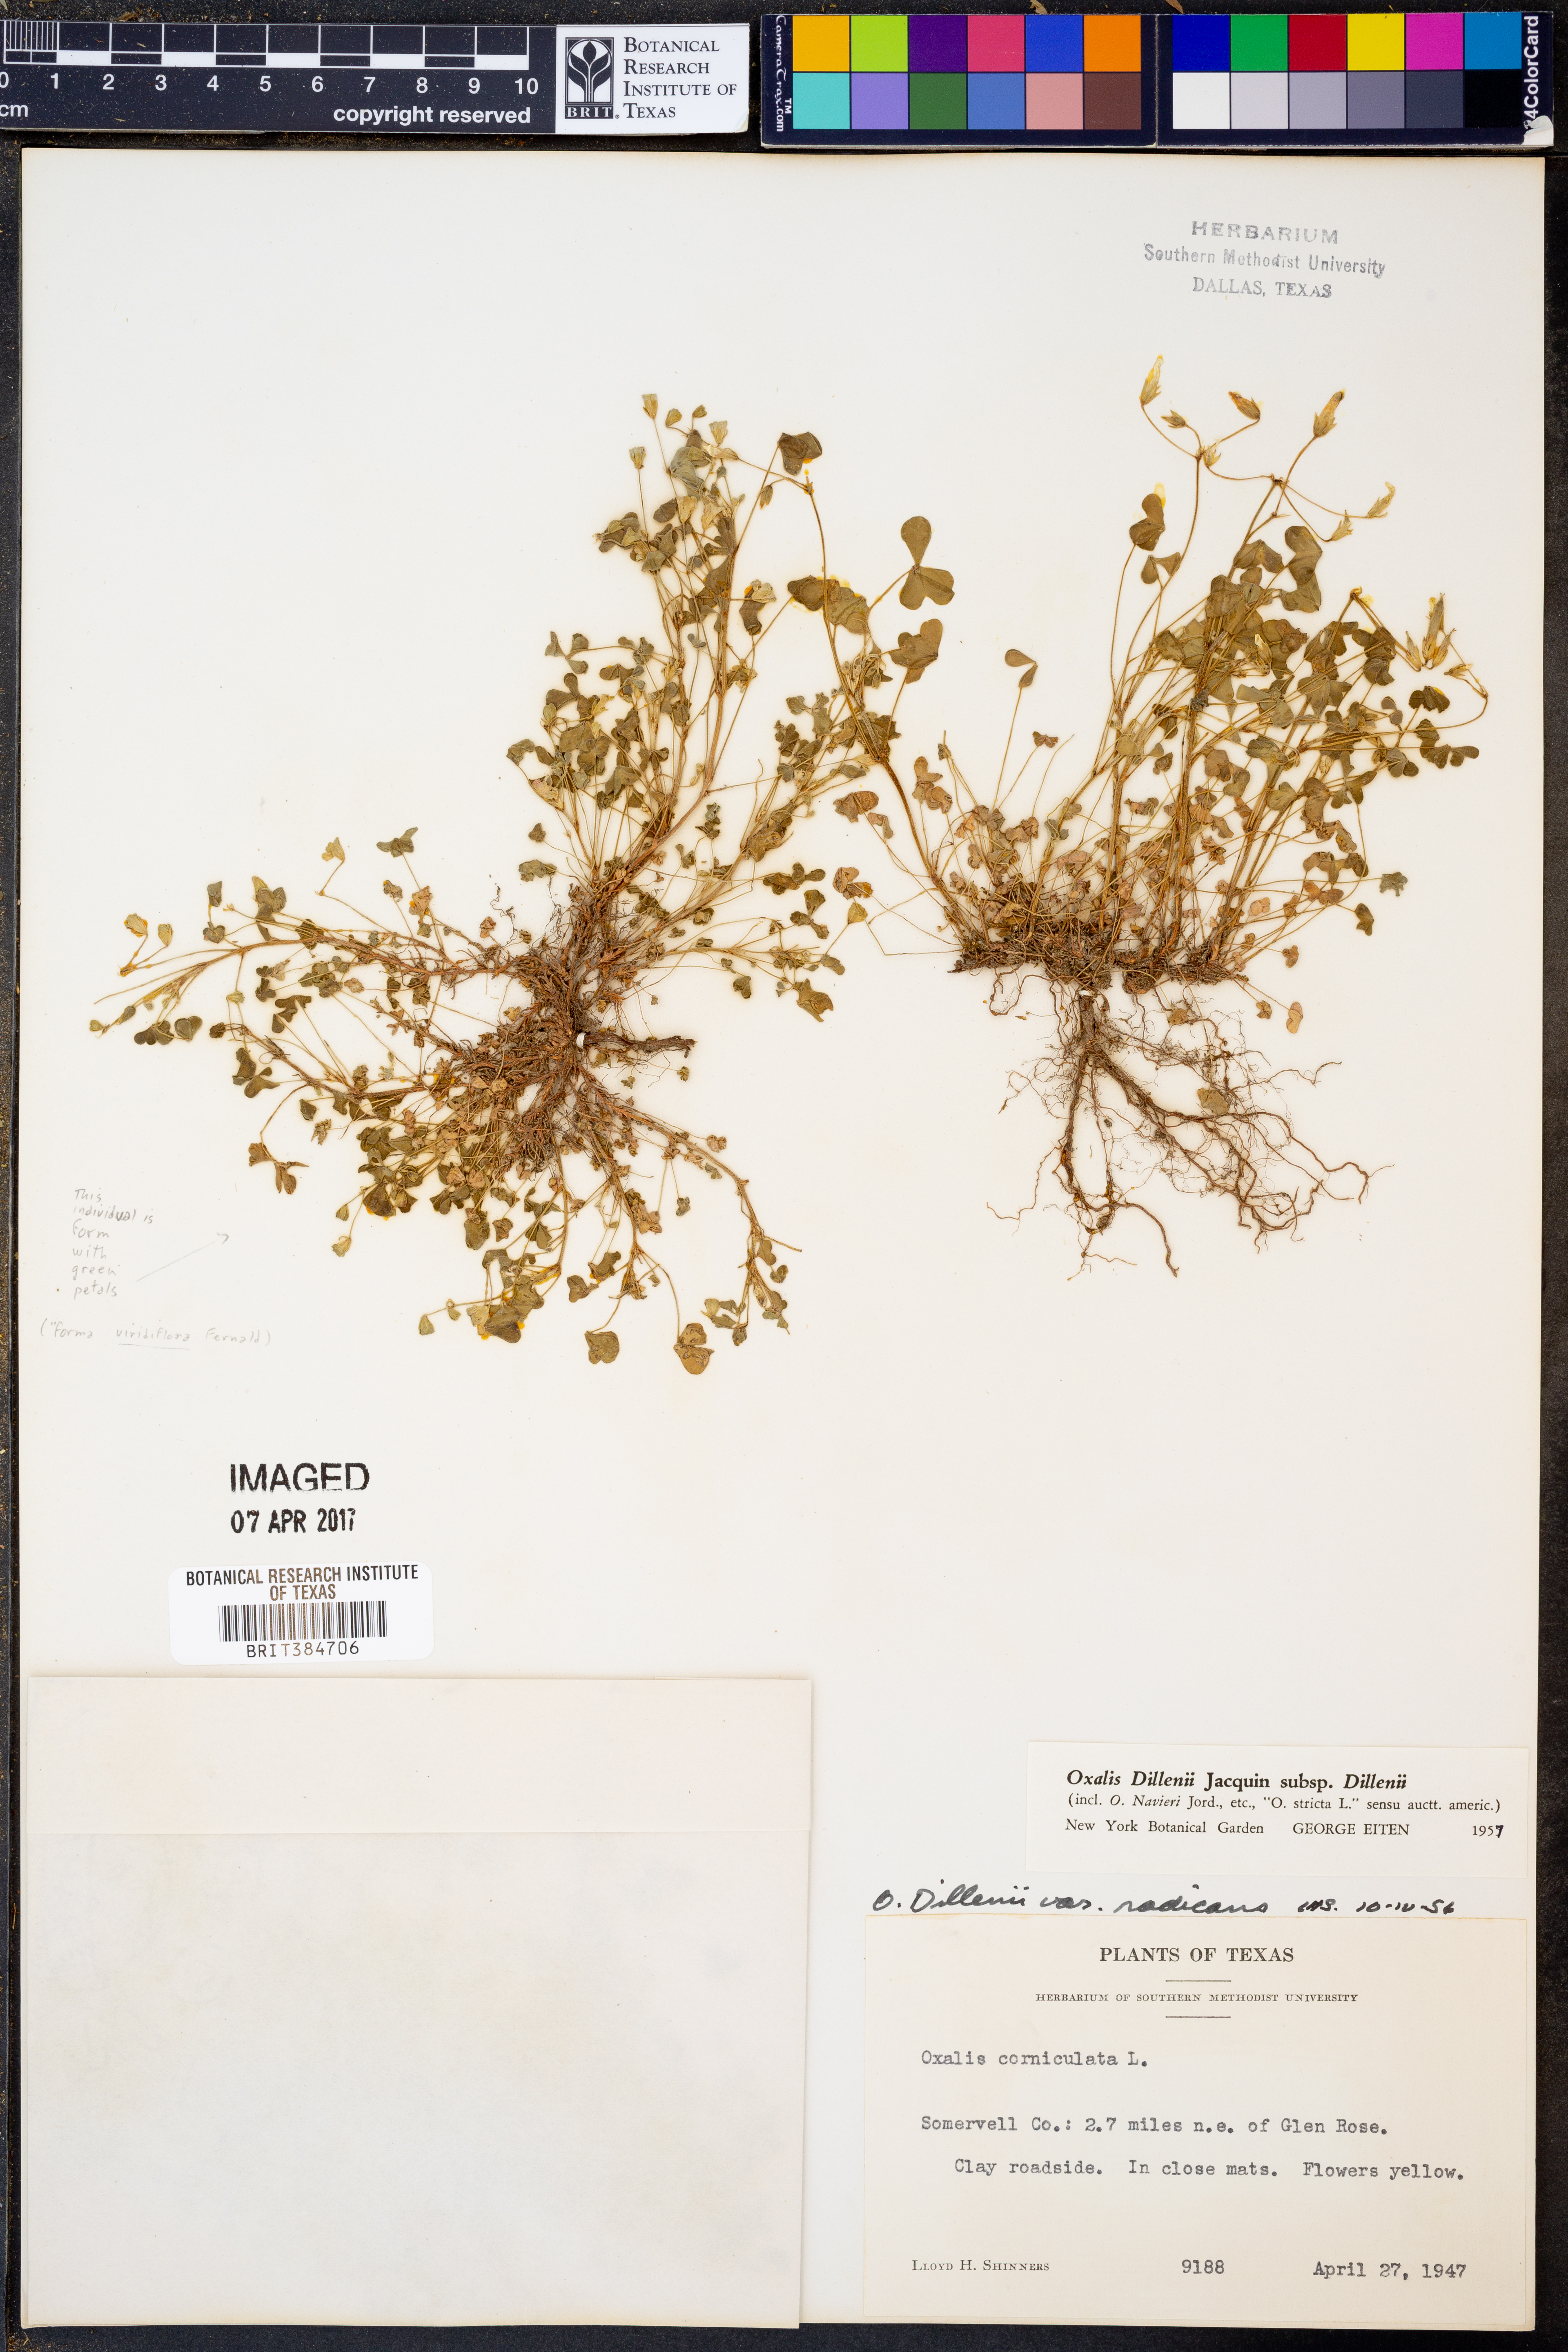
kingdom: Plantae
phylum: Tracheophyta
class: Magnoliopsida
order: Oxalidales
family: Oxalidaceae
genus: Oxalis
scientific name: Oxalis dillenii
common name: Sussex yellow-sorrel
